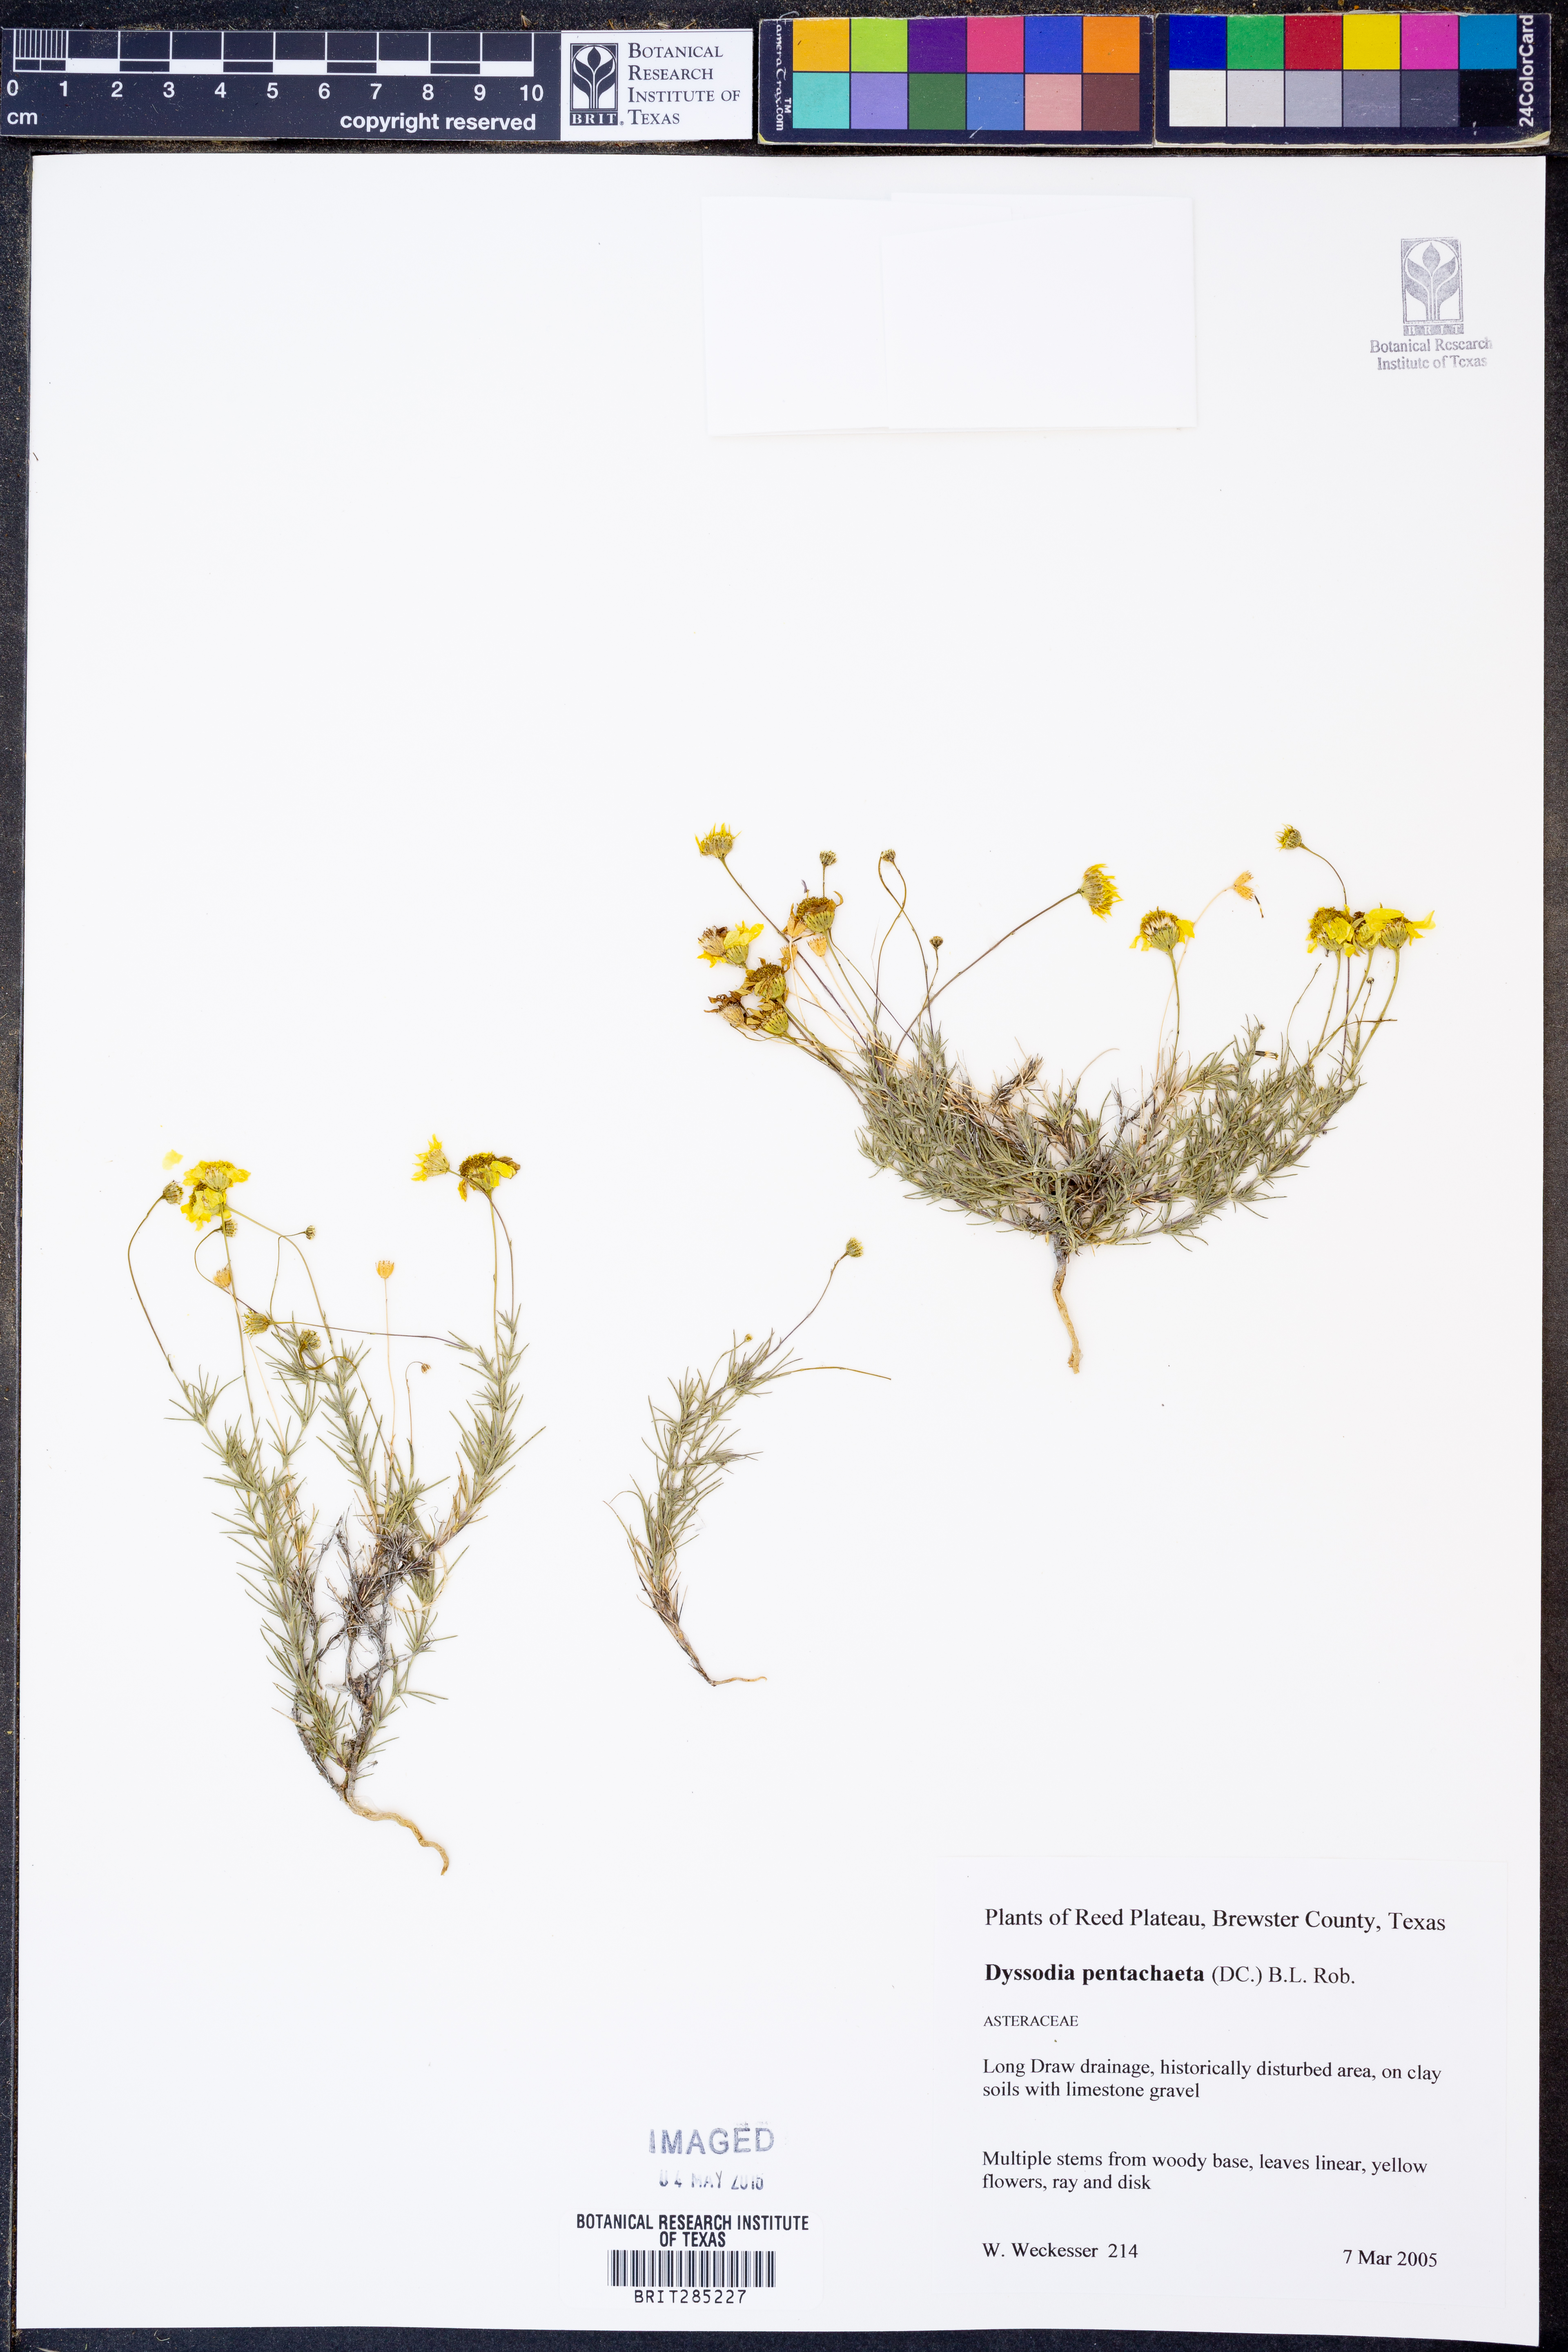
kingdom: Plantae
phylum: Tracheophyta
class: Magnoliopsida
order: Asterales
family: Asteraceae
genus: Thymophylla
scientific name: Thymophylla pentachaeta
